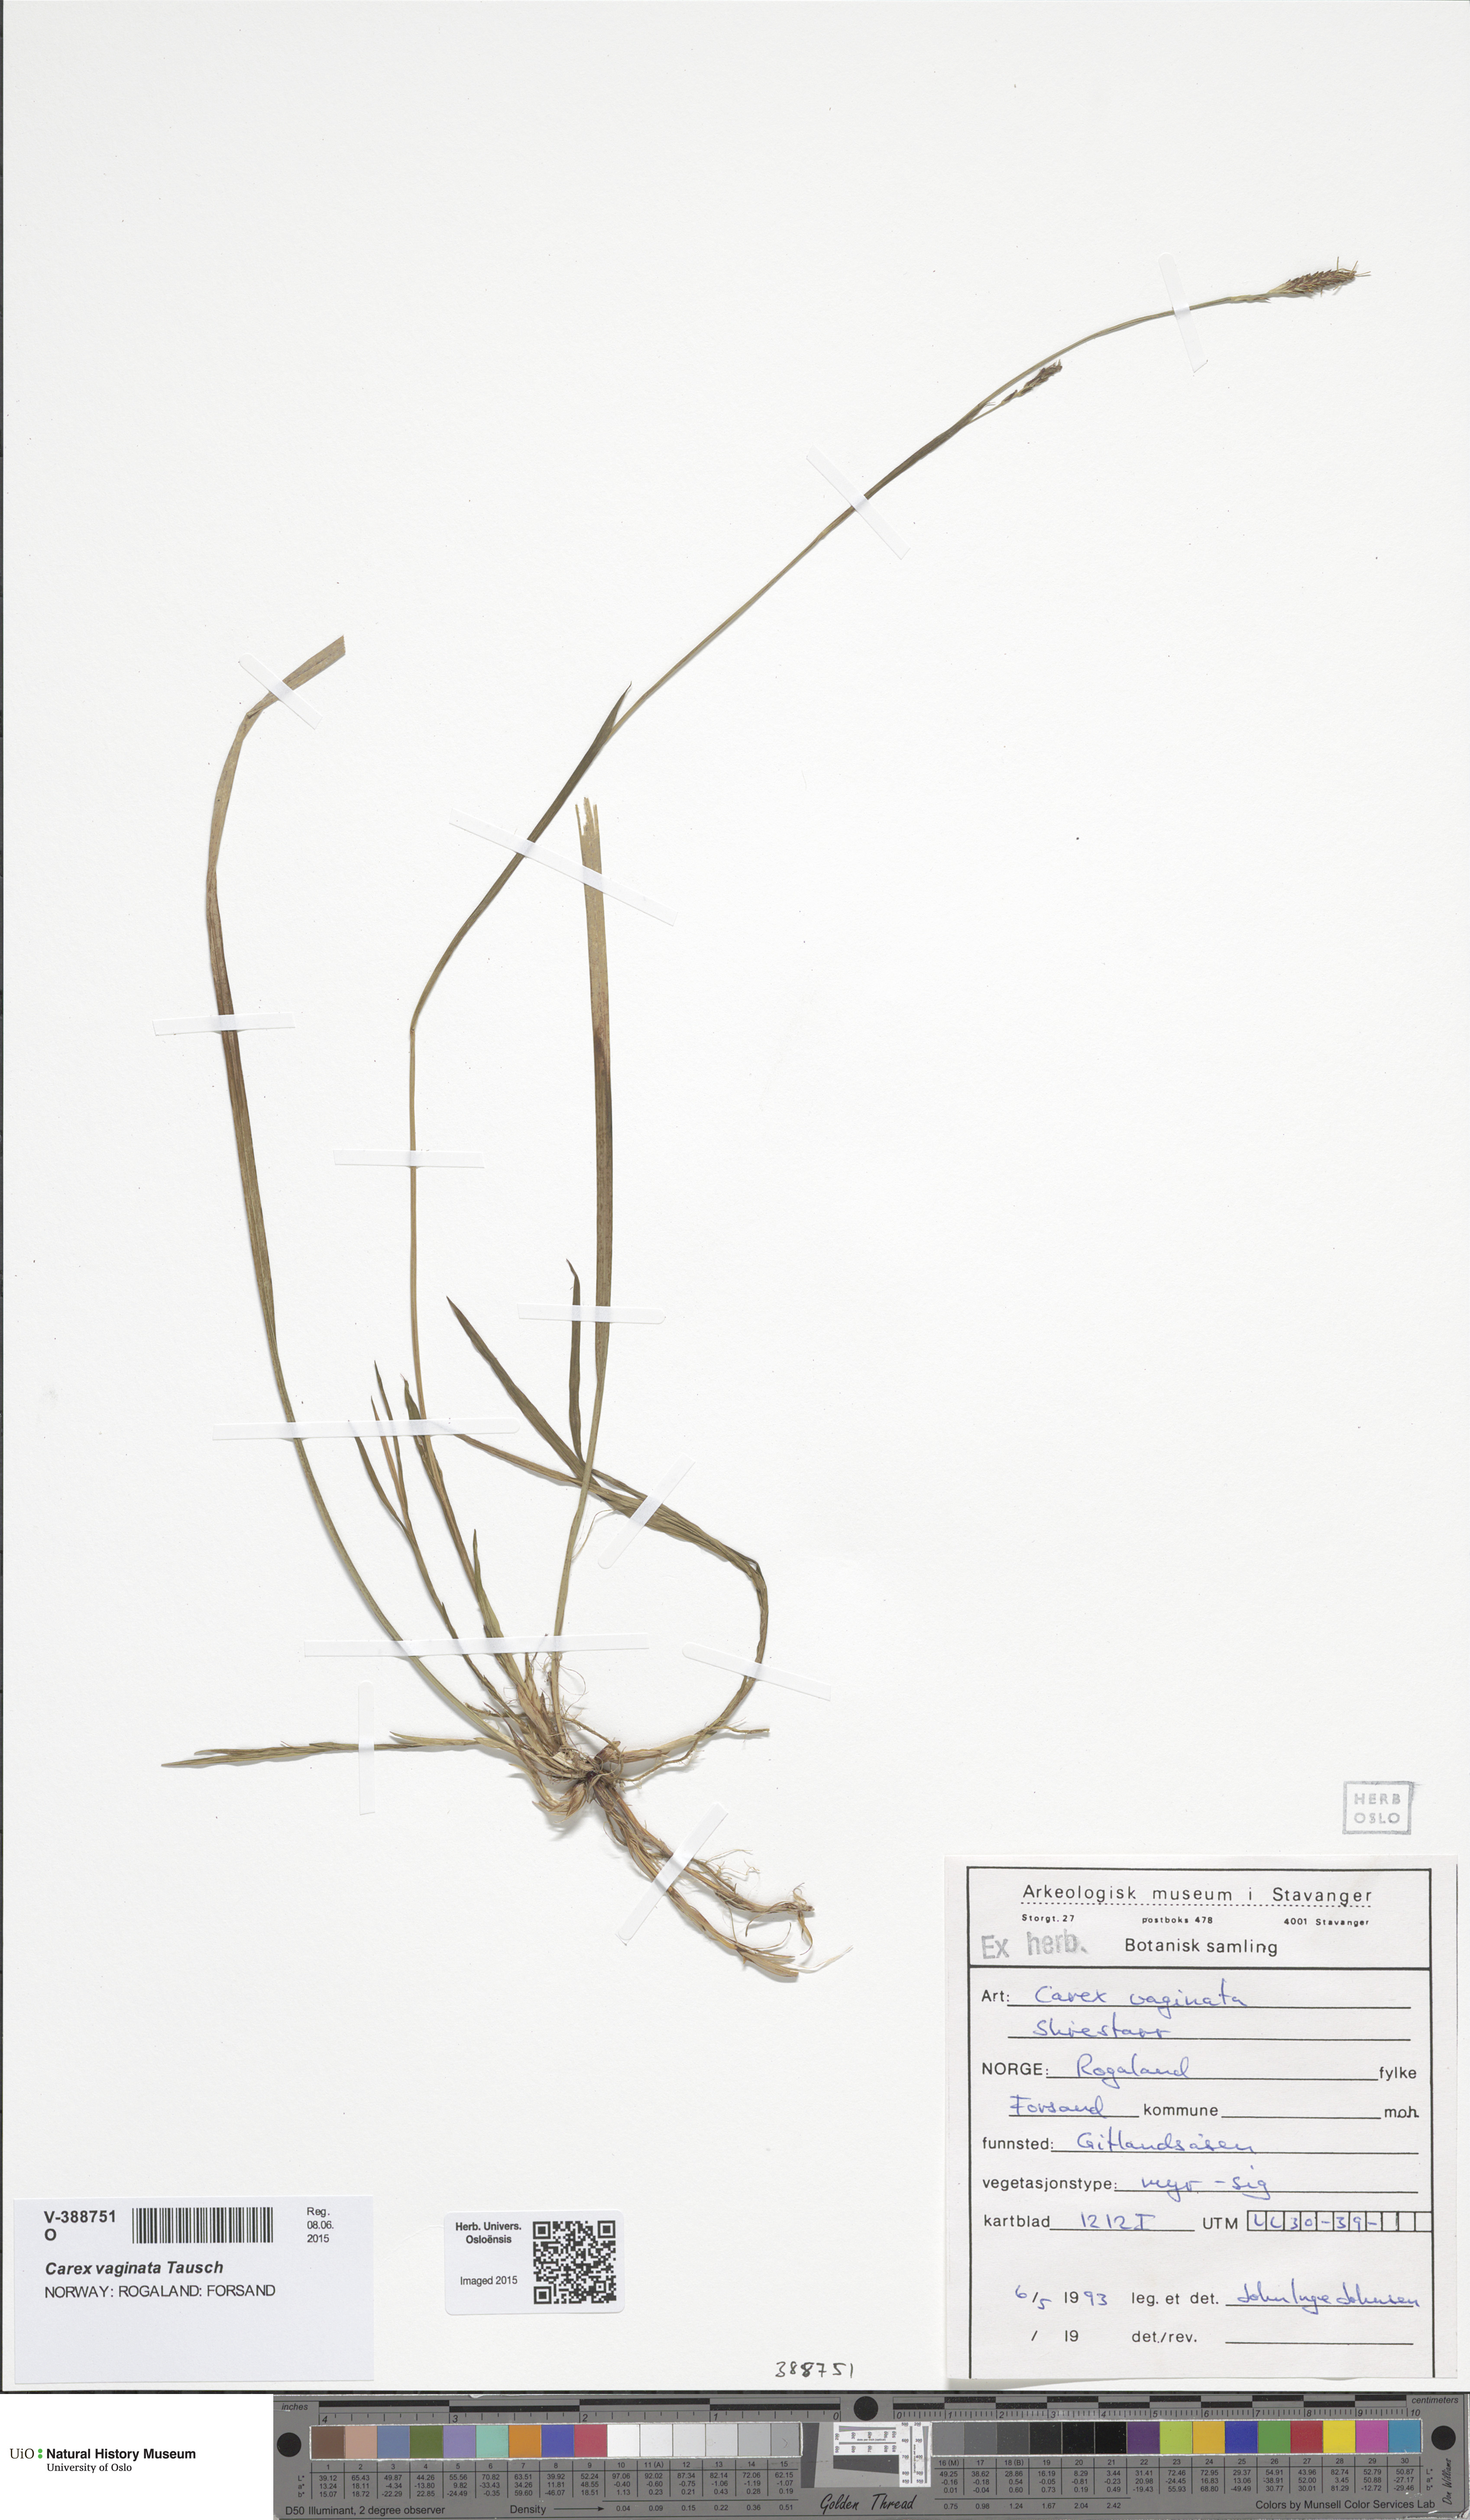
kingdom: Plantae
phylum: Tracheophyta
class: Liliopsida
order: Poales
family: Cyperaceae
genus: Carex
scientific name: Carex vaginata
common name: Sheathed sedge
